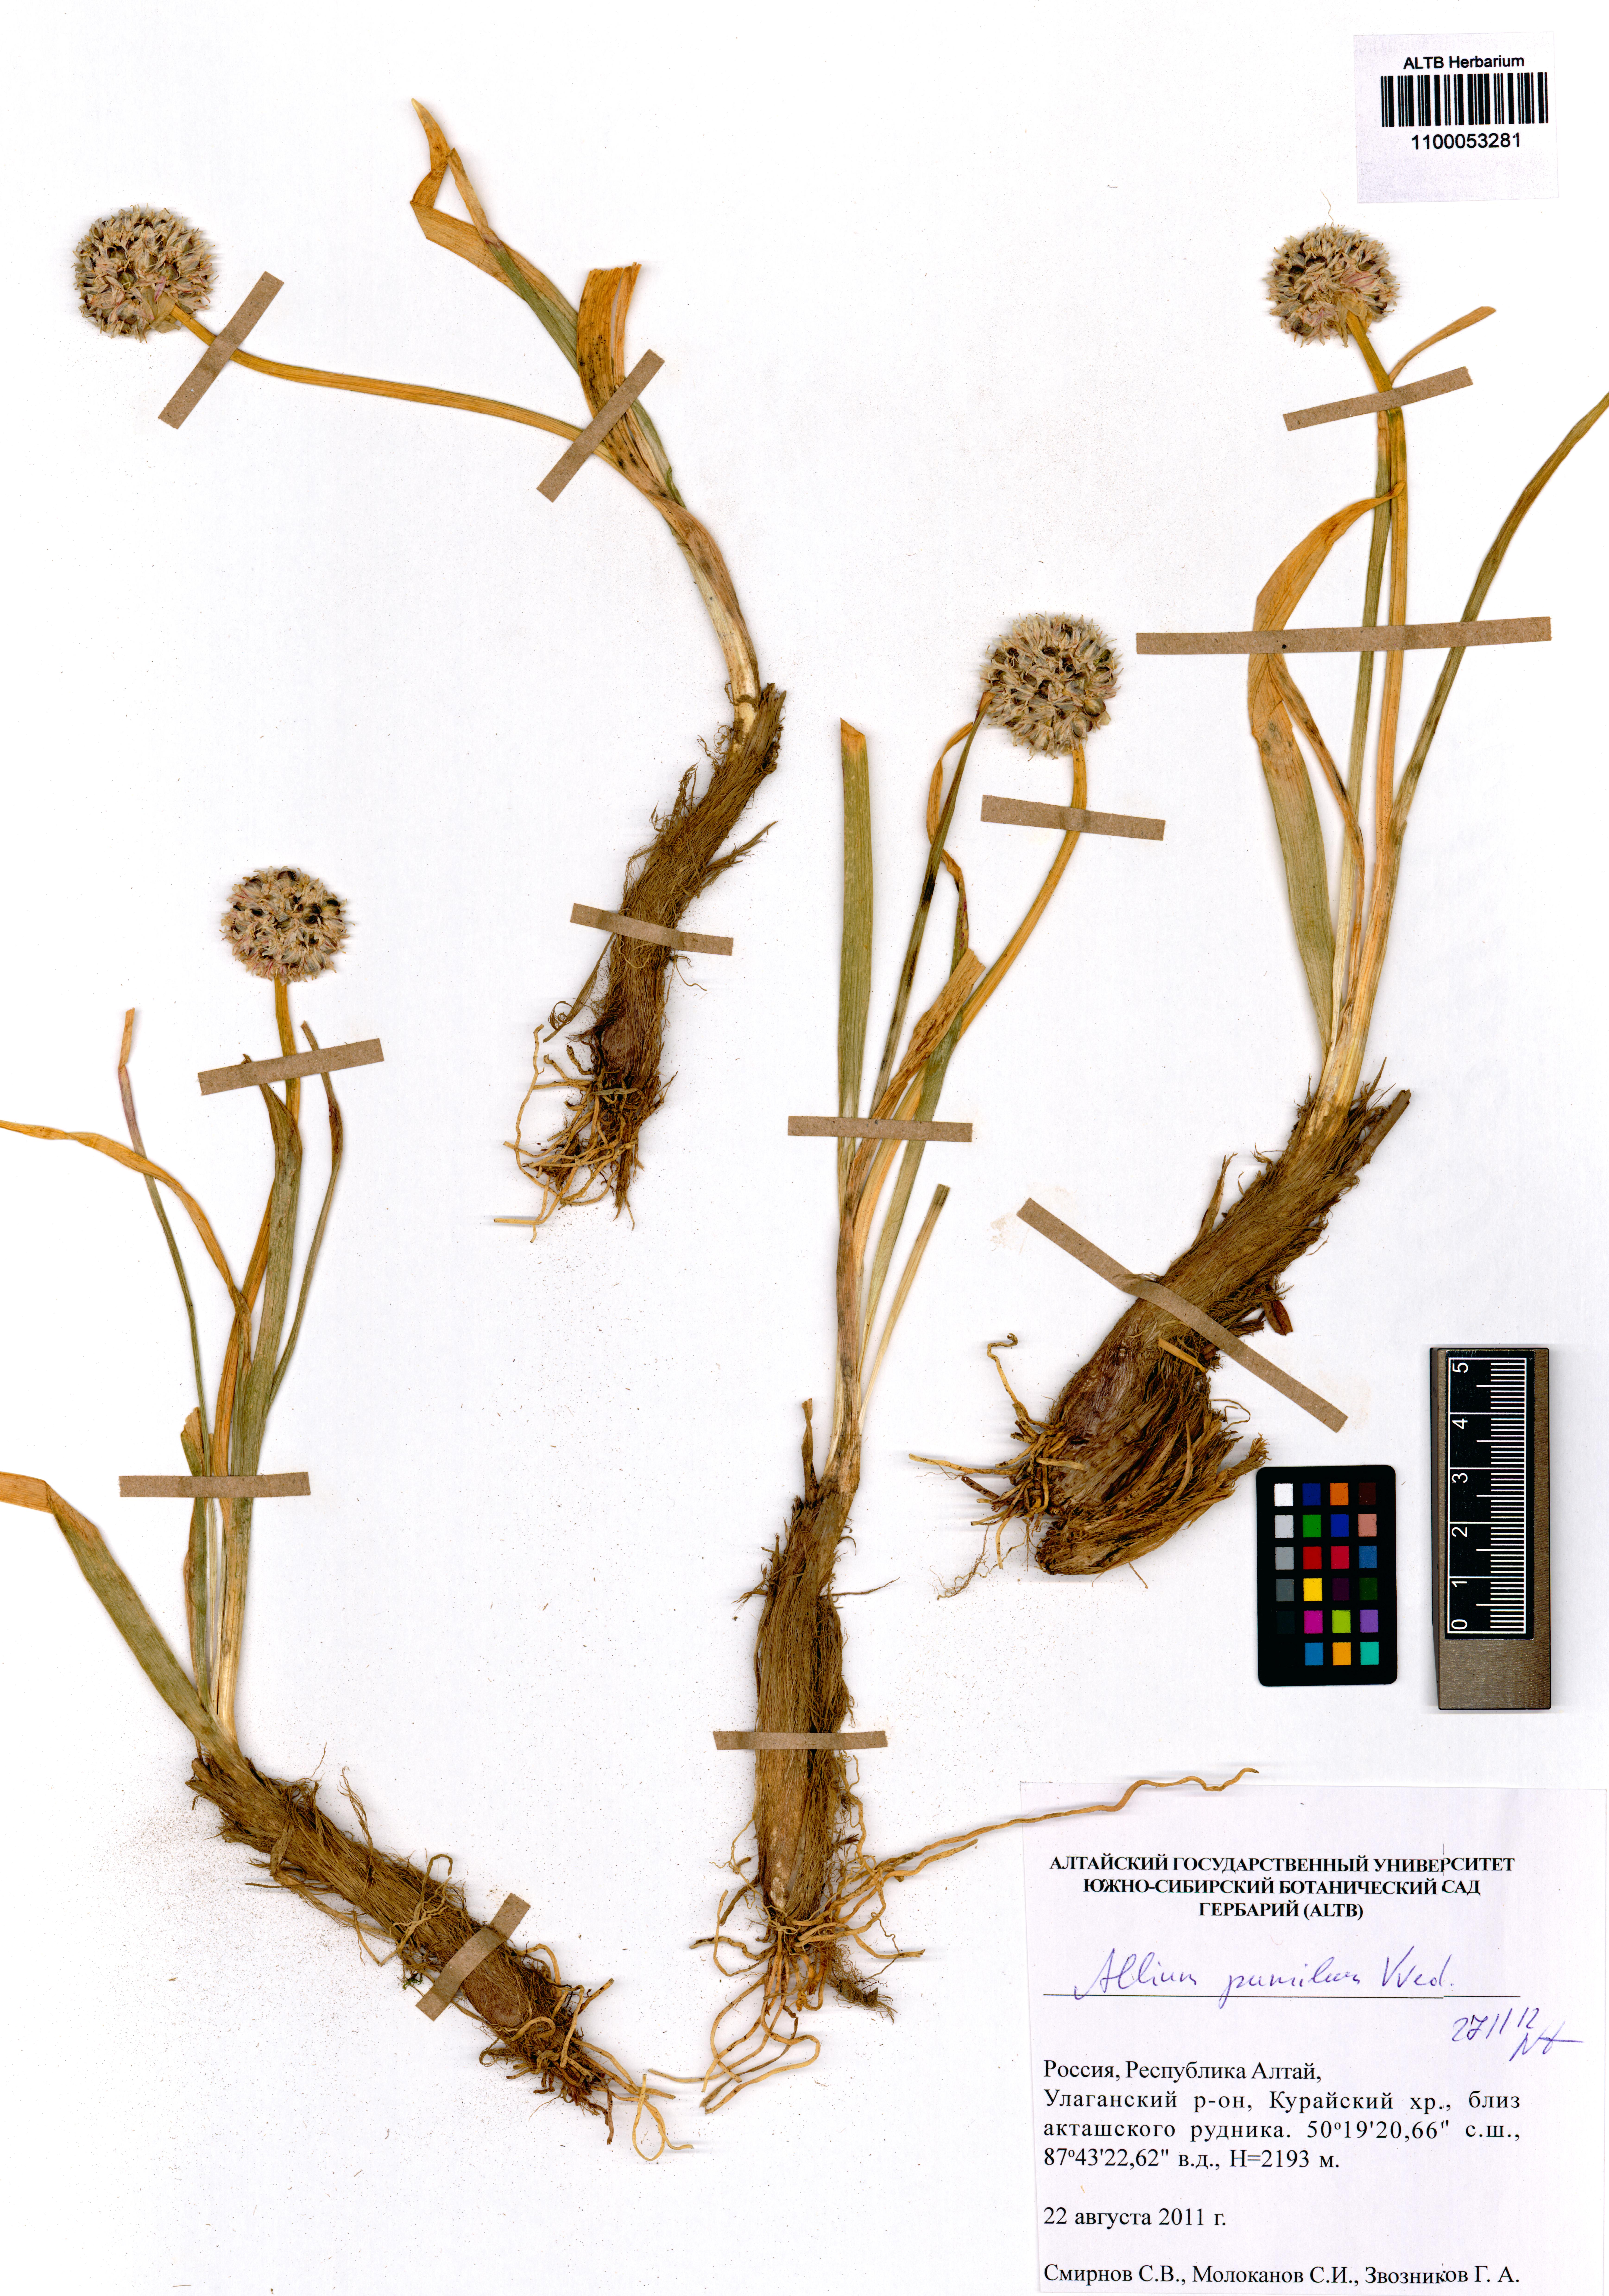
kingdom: Plantae
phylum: Tracheophyta
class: Liliopsida
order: Asparagales
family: Amaryllidaceae
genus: Allium
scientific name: Allium pumilum
